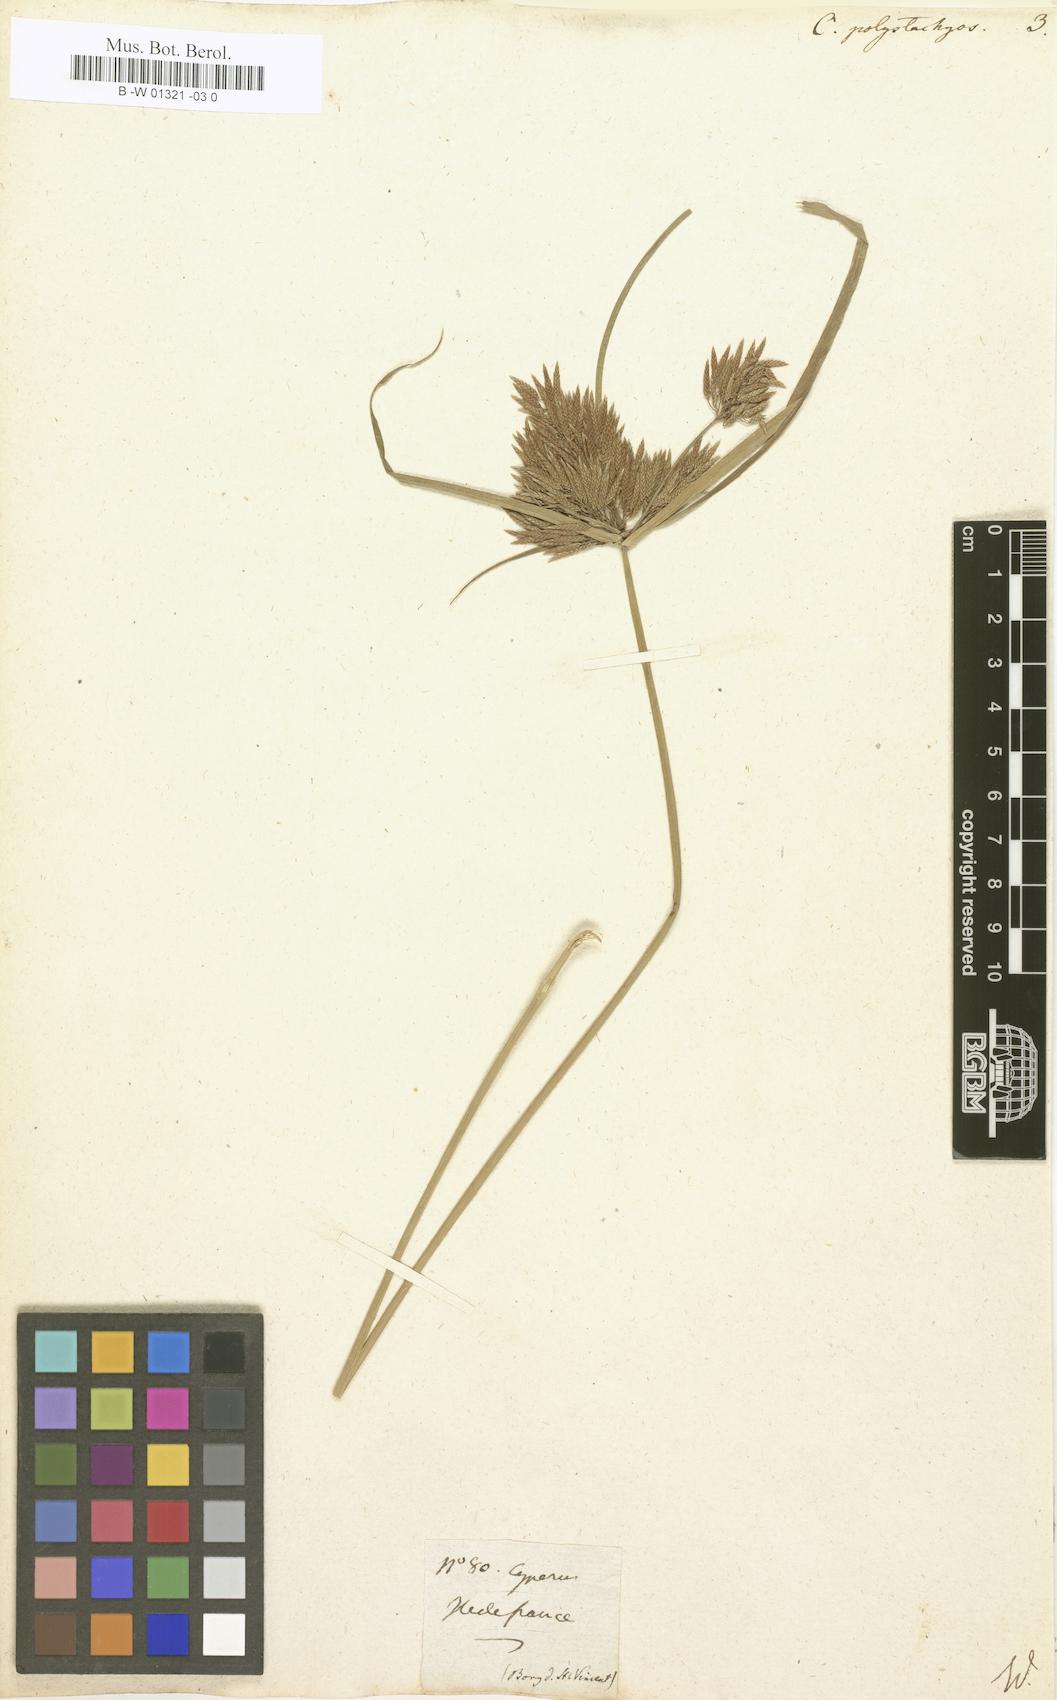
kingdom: Plantae
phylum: Tracheophyta
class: Liliopsida
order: Poales
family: Cyperaceae
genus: Cyperus
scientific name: Cyperus polystachyos
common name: Bunchy flat sedge
